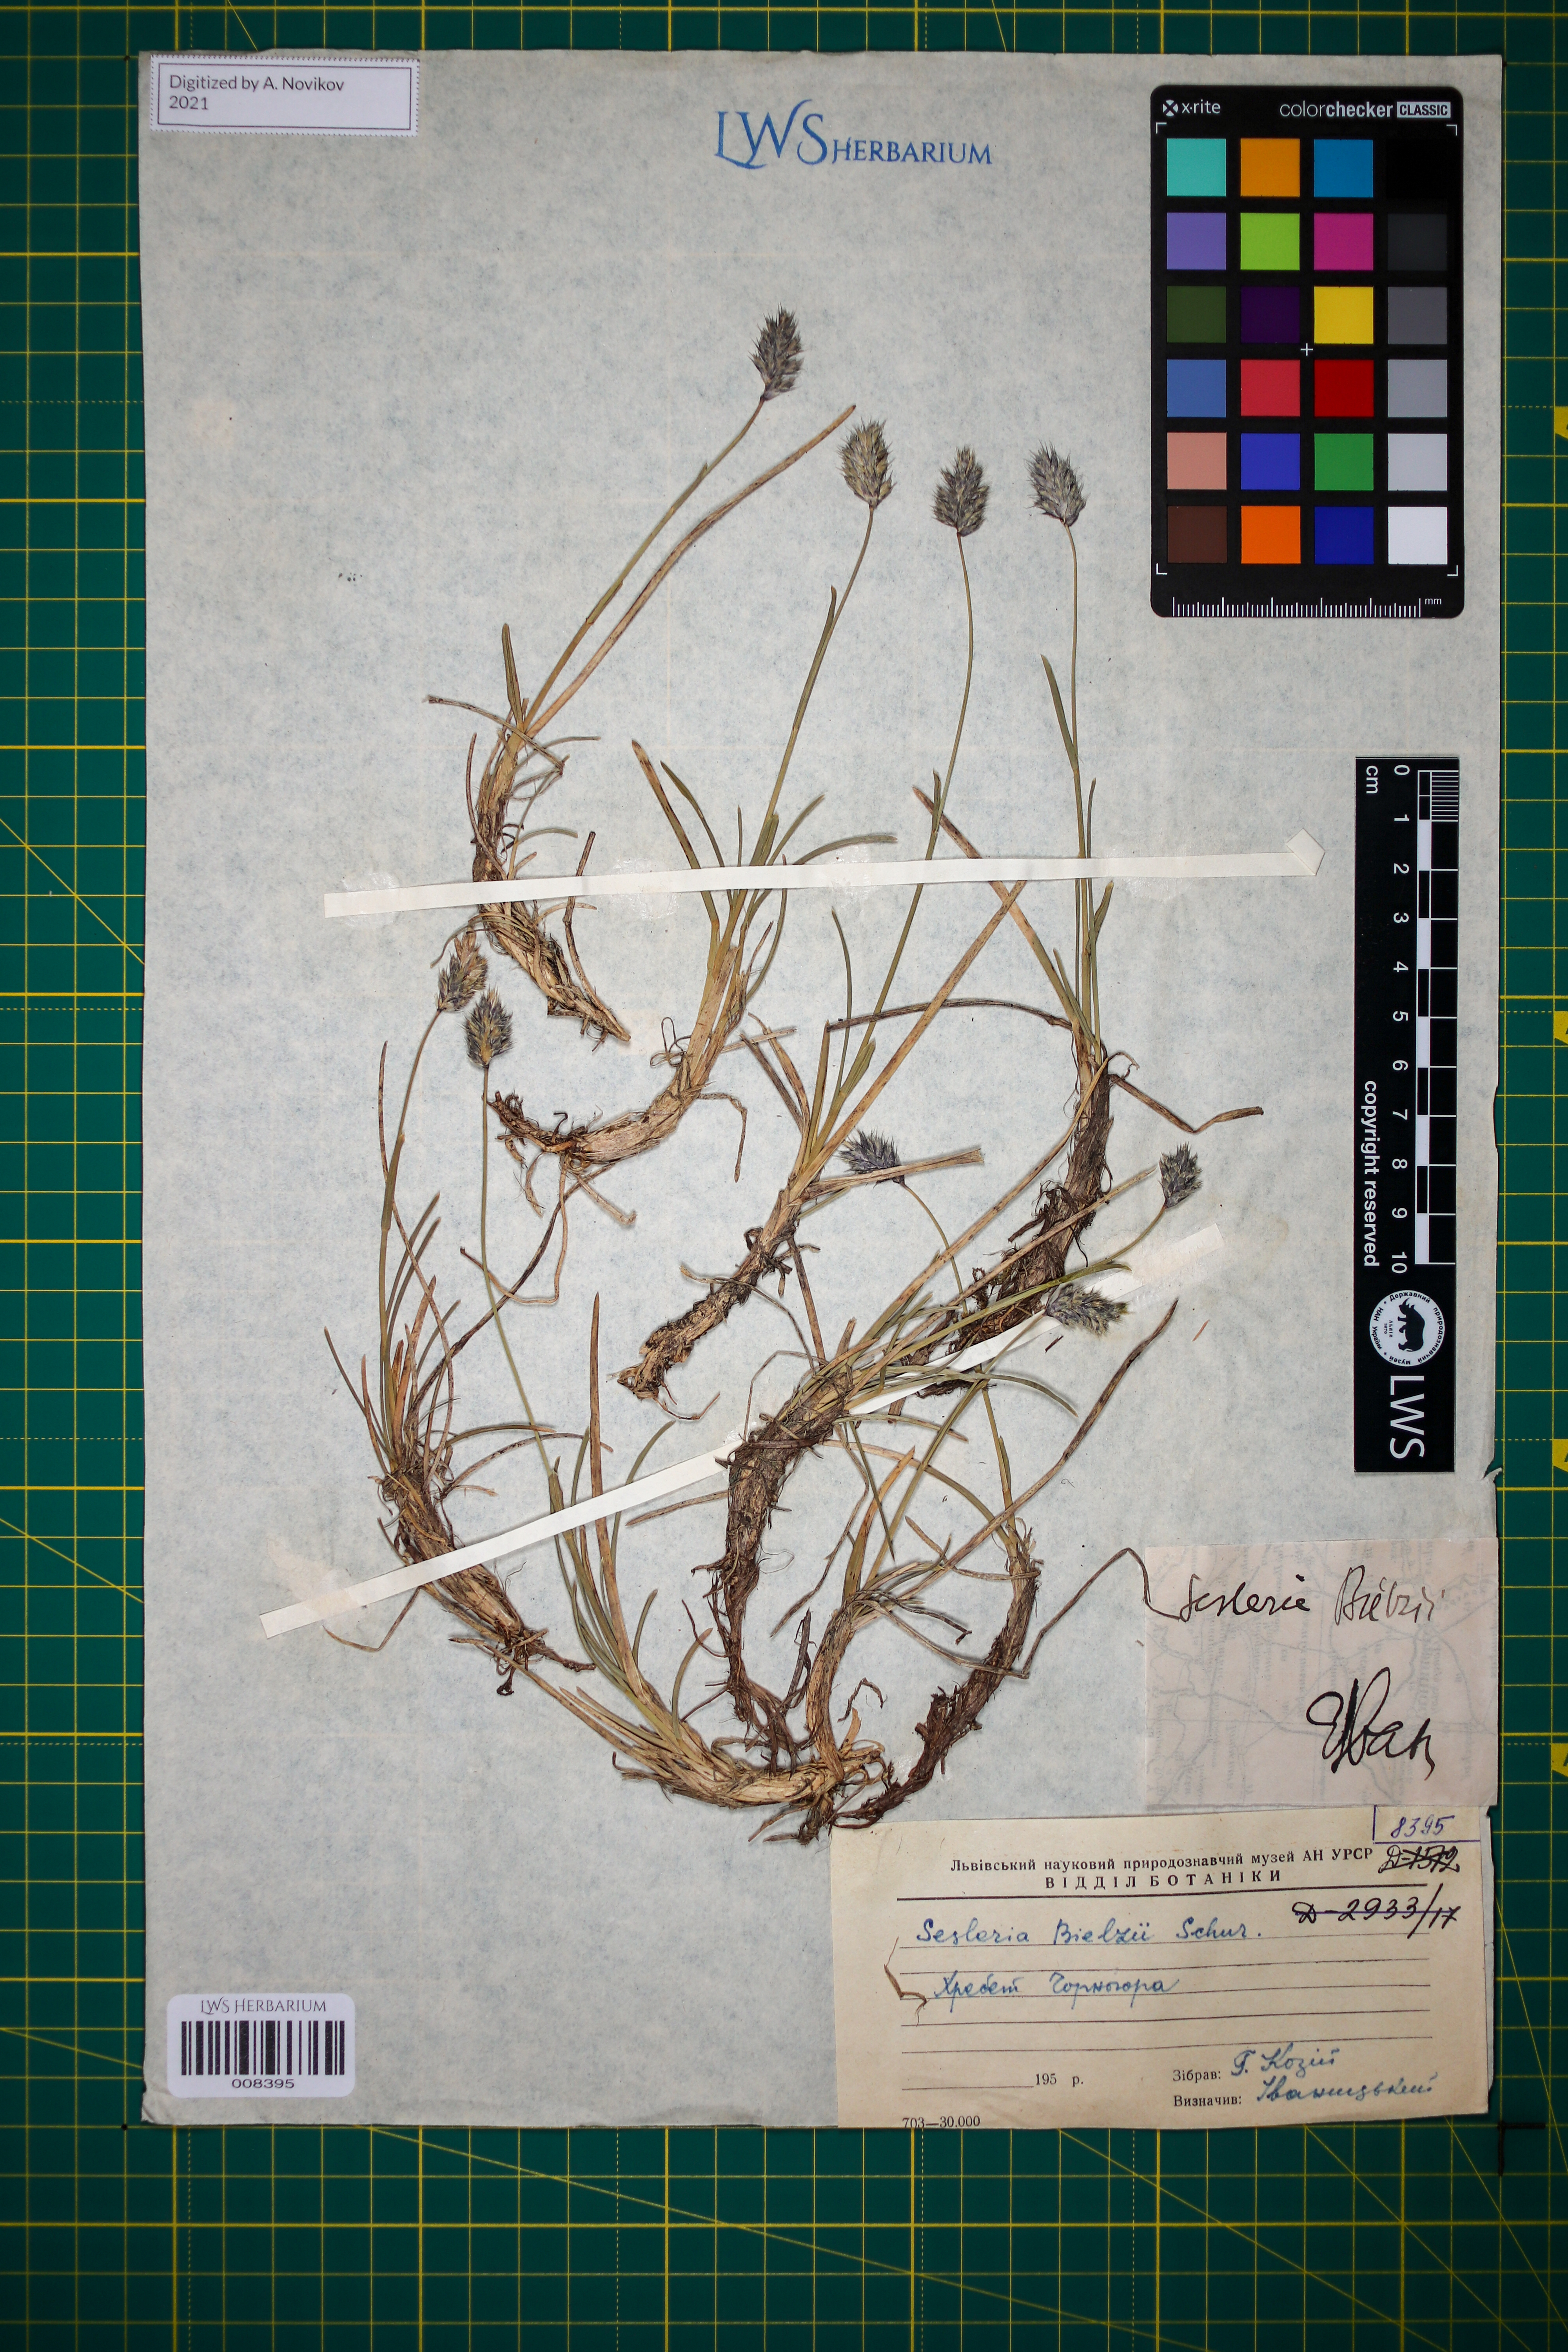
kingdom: Plantae
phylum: Tracheophyta
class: Liliopsida
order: Poales
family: Poaceae
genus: Sesleria
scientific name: Sesleria bielzii
